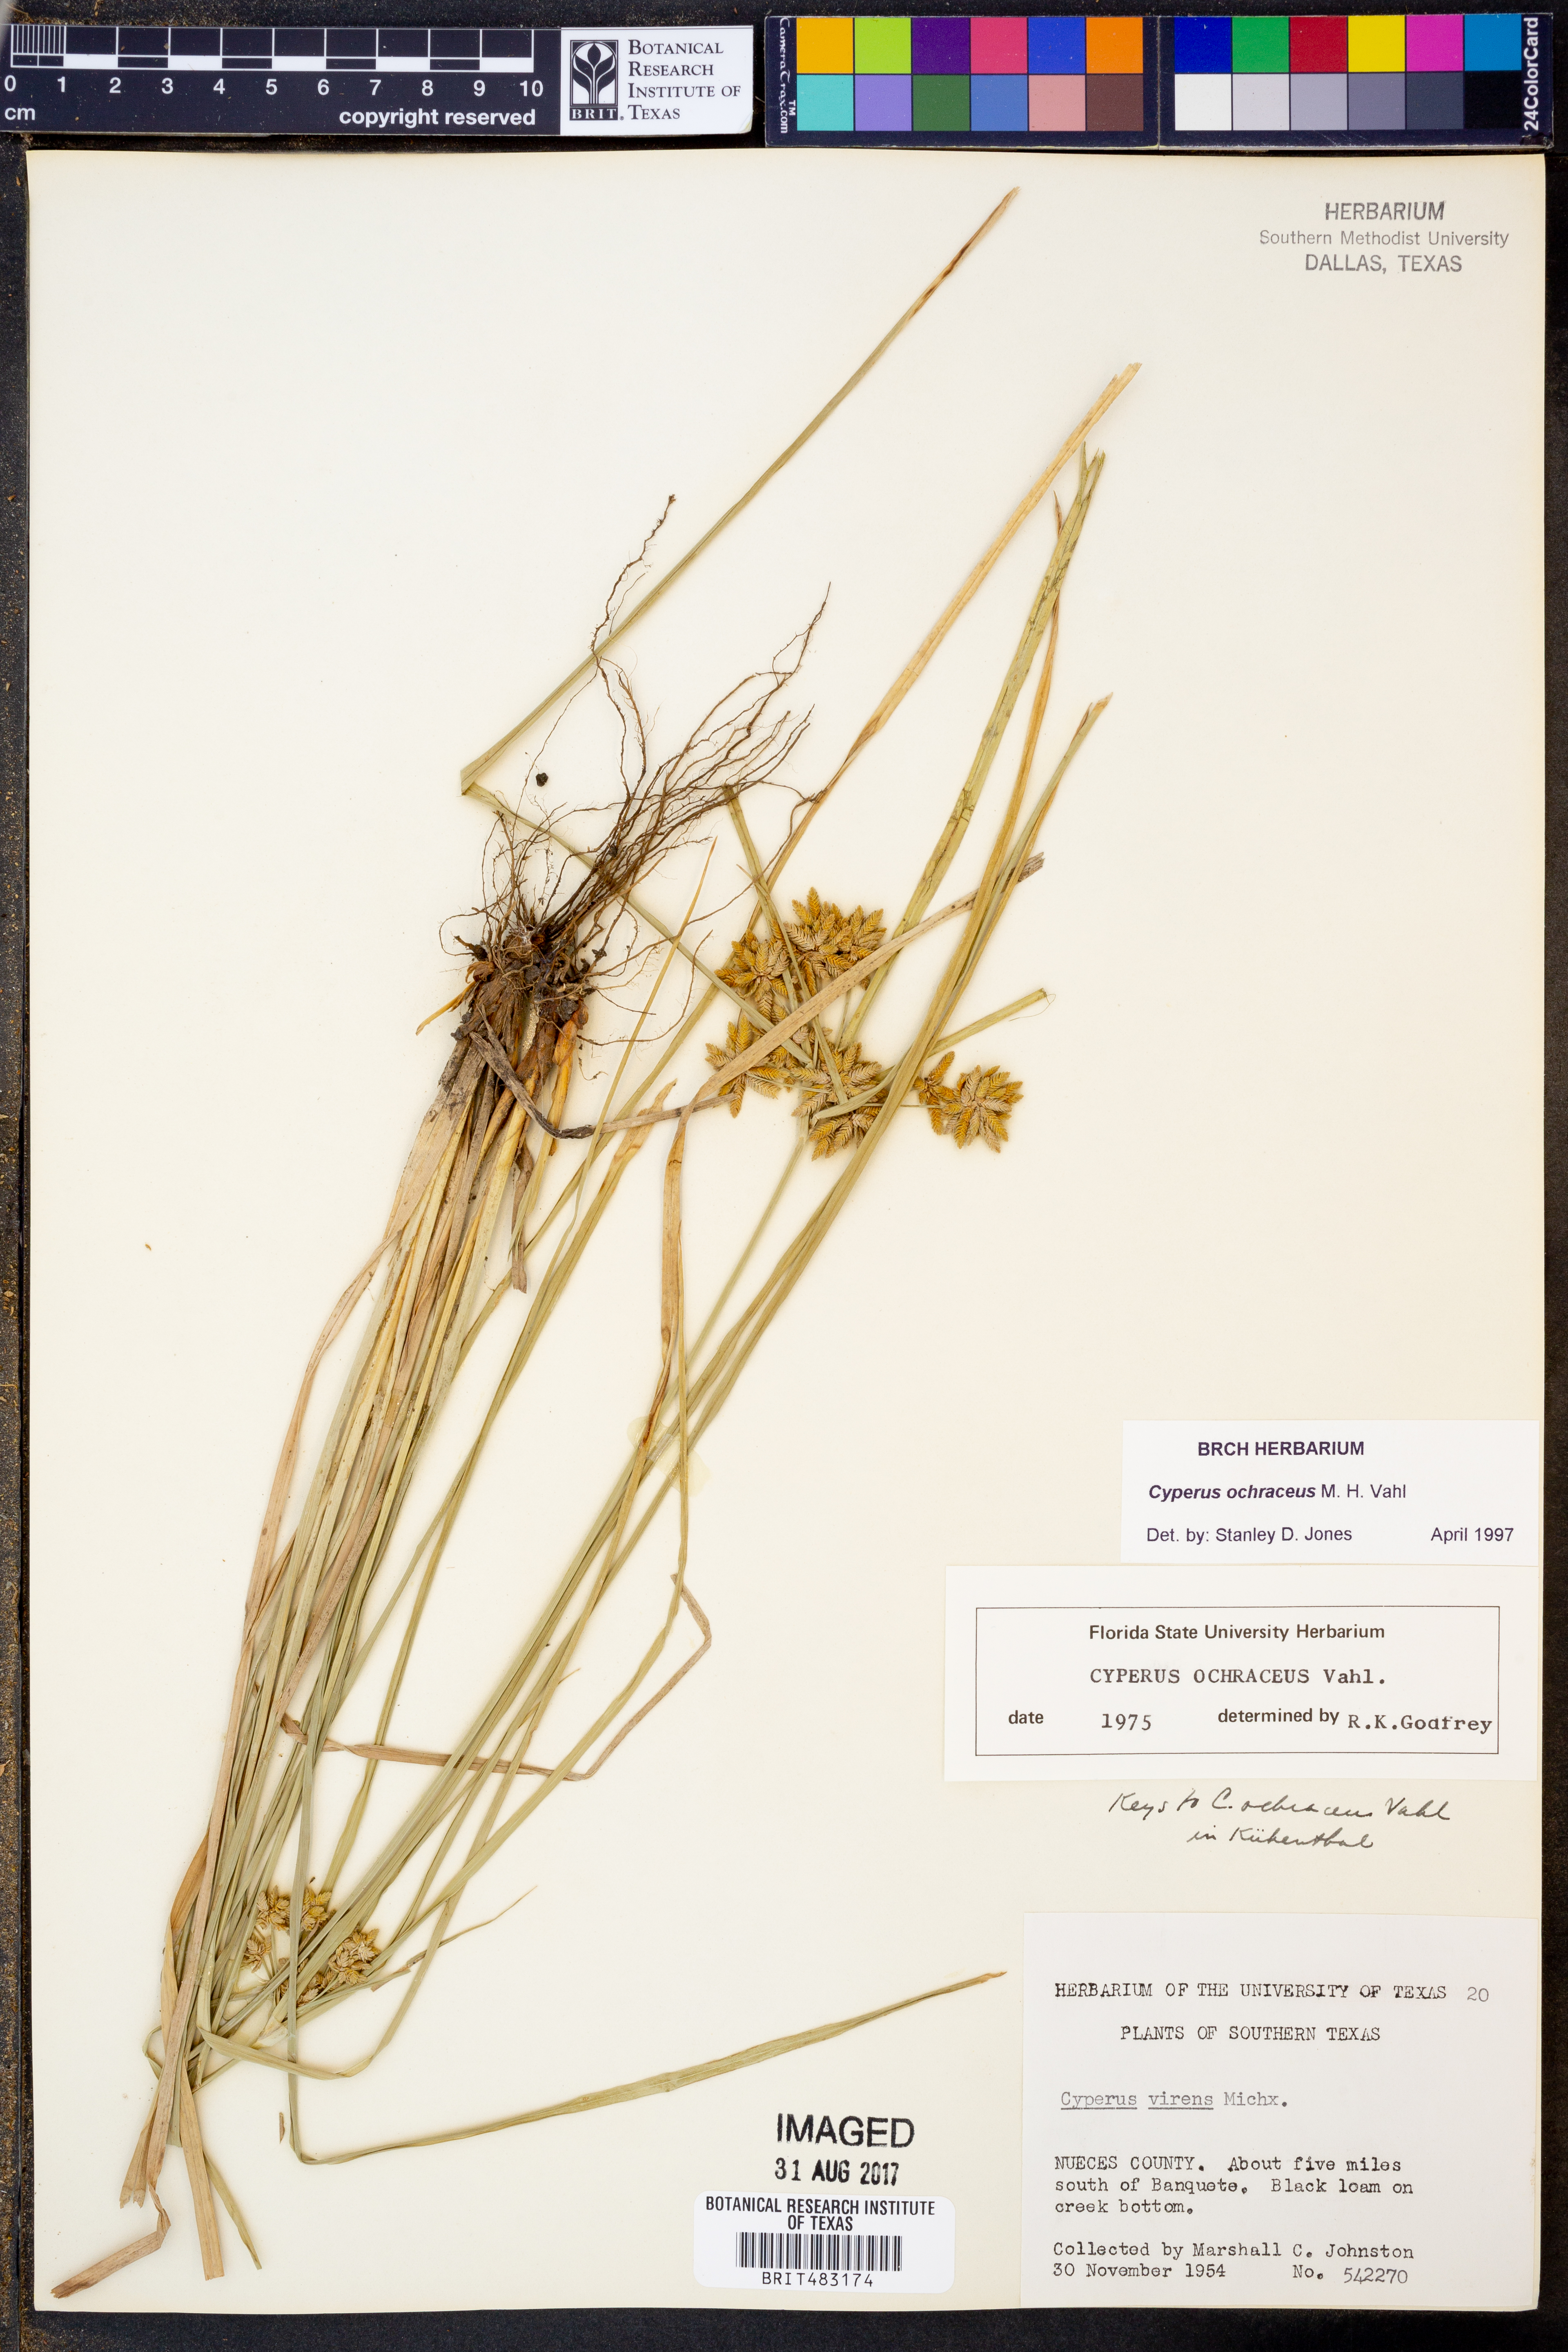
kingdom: Plantae
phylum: Tracheophyta
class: Liliopsida
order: Poales
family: Cyperaceae
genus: Cyperus
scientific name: Cyperus ochraceus
